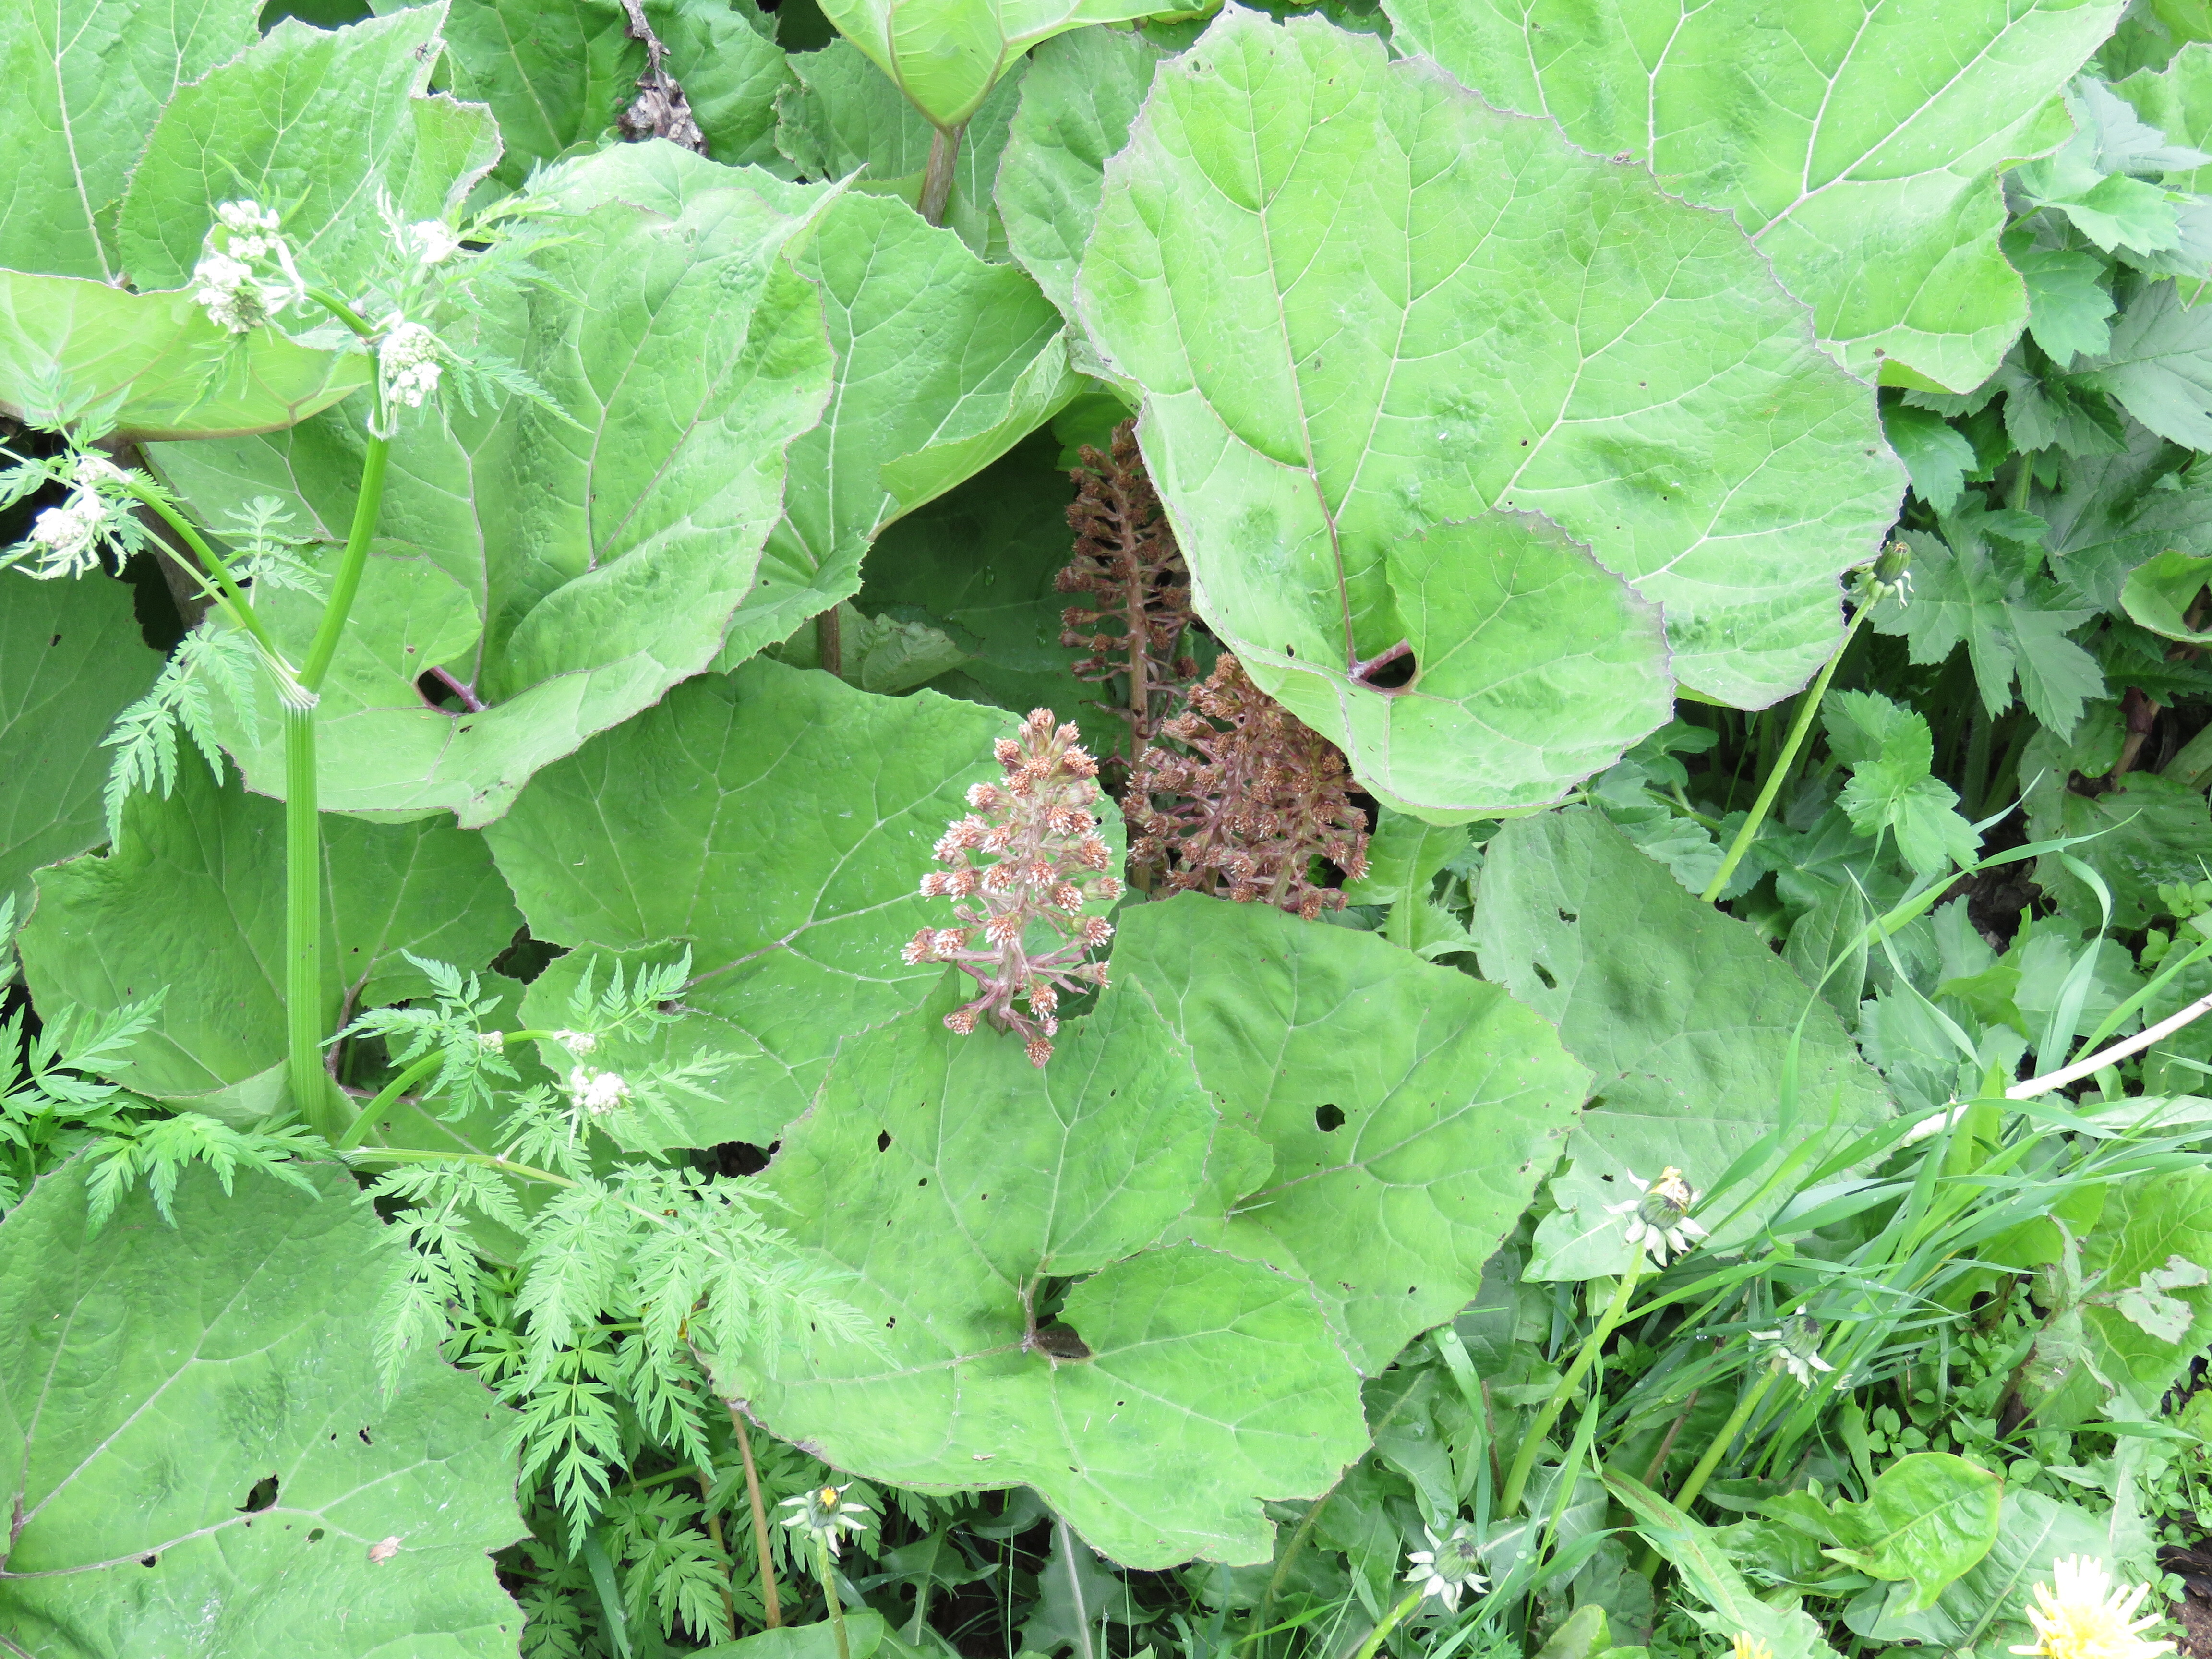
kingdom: Plantae
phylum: Tracheophyta
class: Magnoliopsida
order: Asterales
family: Asteraceae
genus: Petasites
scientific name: Petasites hybridus
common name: Butterbur
